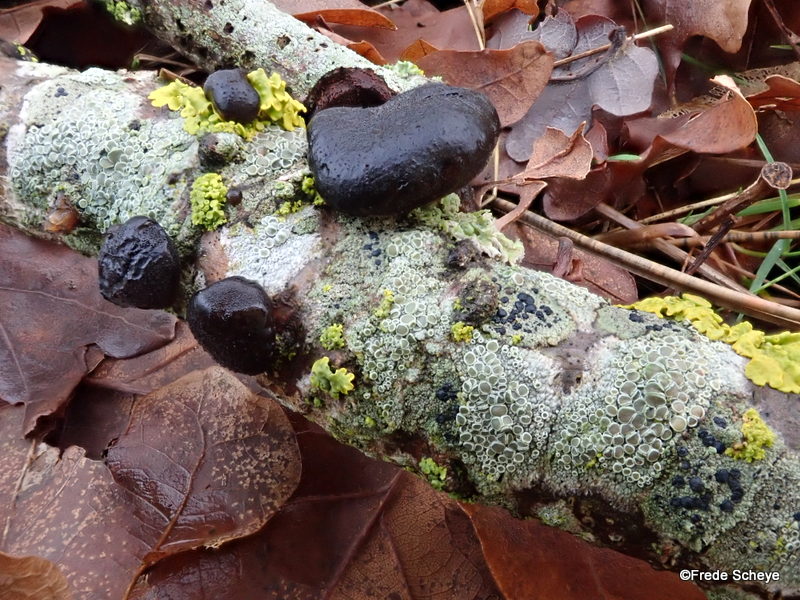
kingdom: Fungi
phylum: Basidiomycota
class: Agaricomycetes
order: Auriculariales
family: Auriculariaceae
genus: Exidia
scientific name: Exidia glandulosa
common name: ege-bævretop
